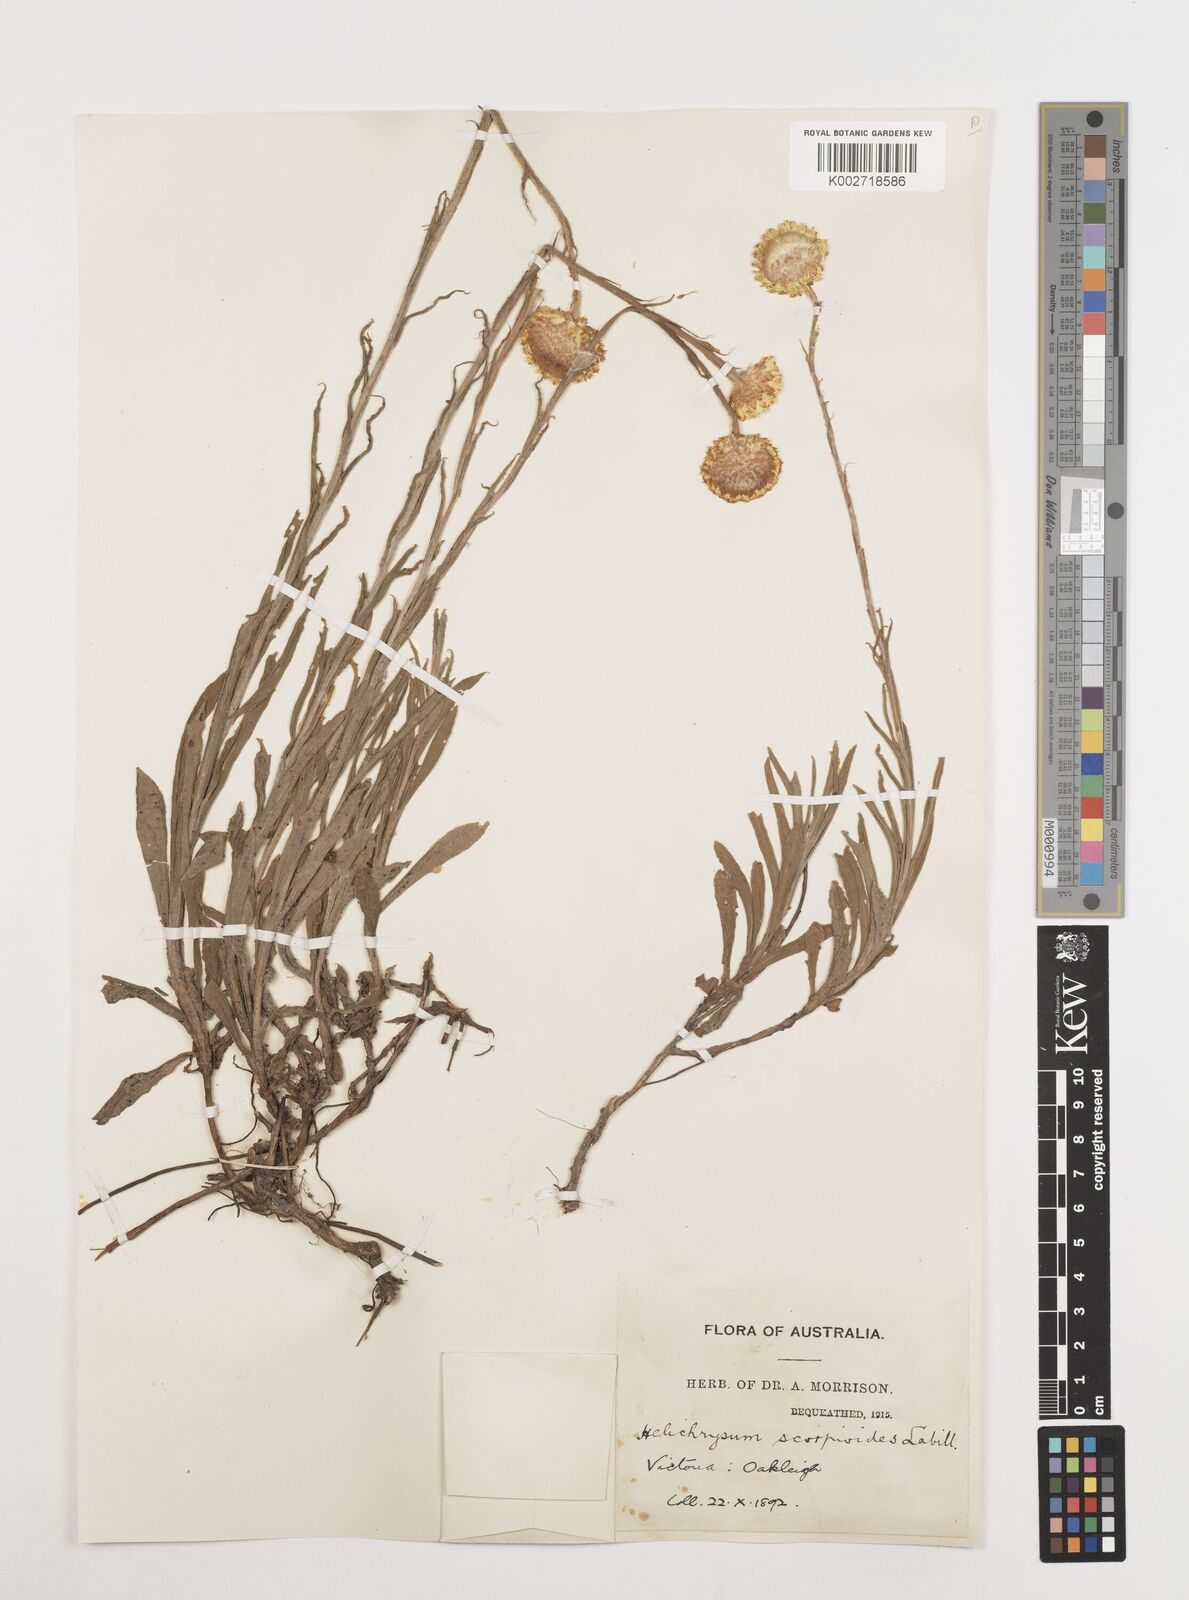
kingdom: Plantae
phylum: Tracheophyta
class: Magnoliopsida
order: Asterales
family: Asteraceae
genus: Coronidium
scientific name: Coronidium scorpioides
